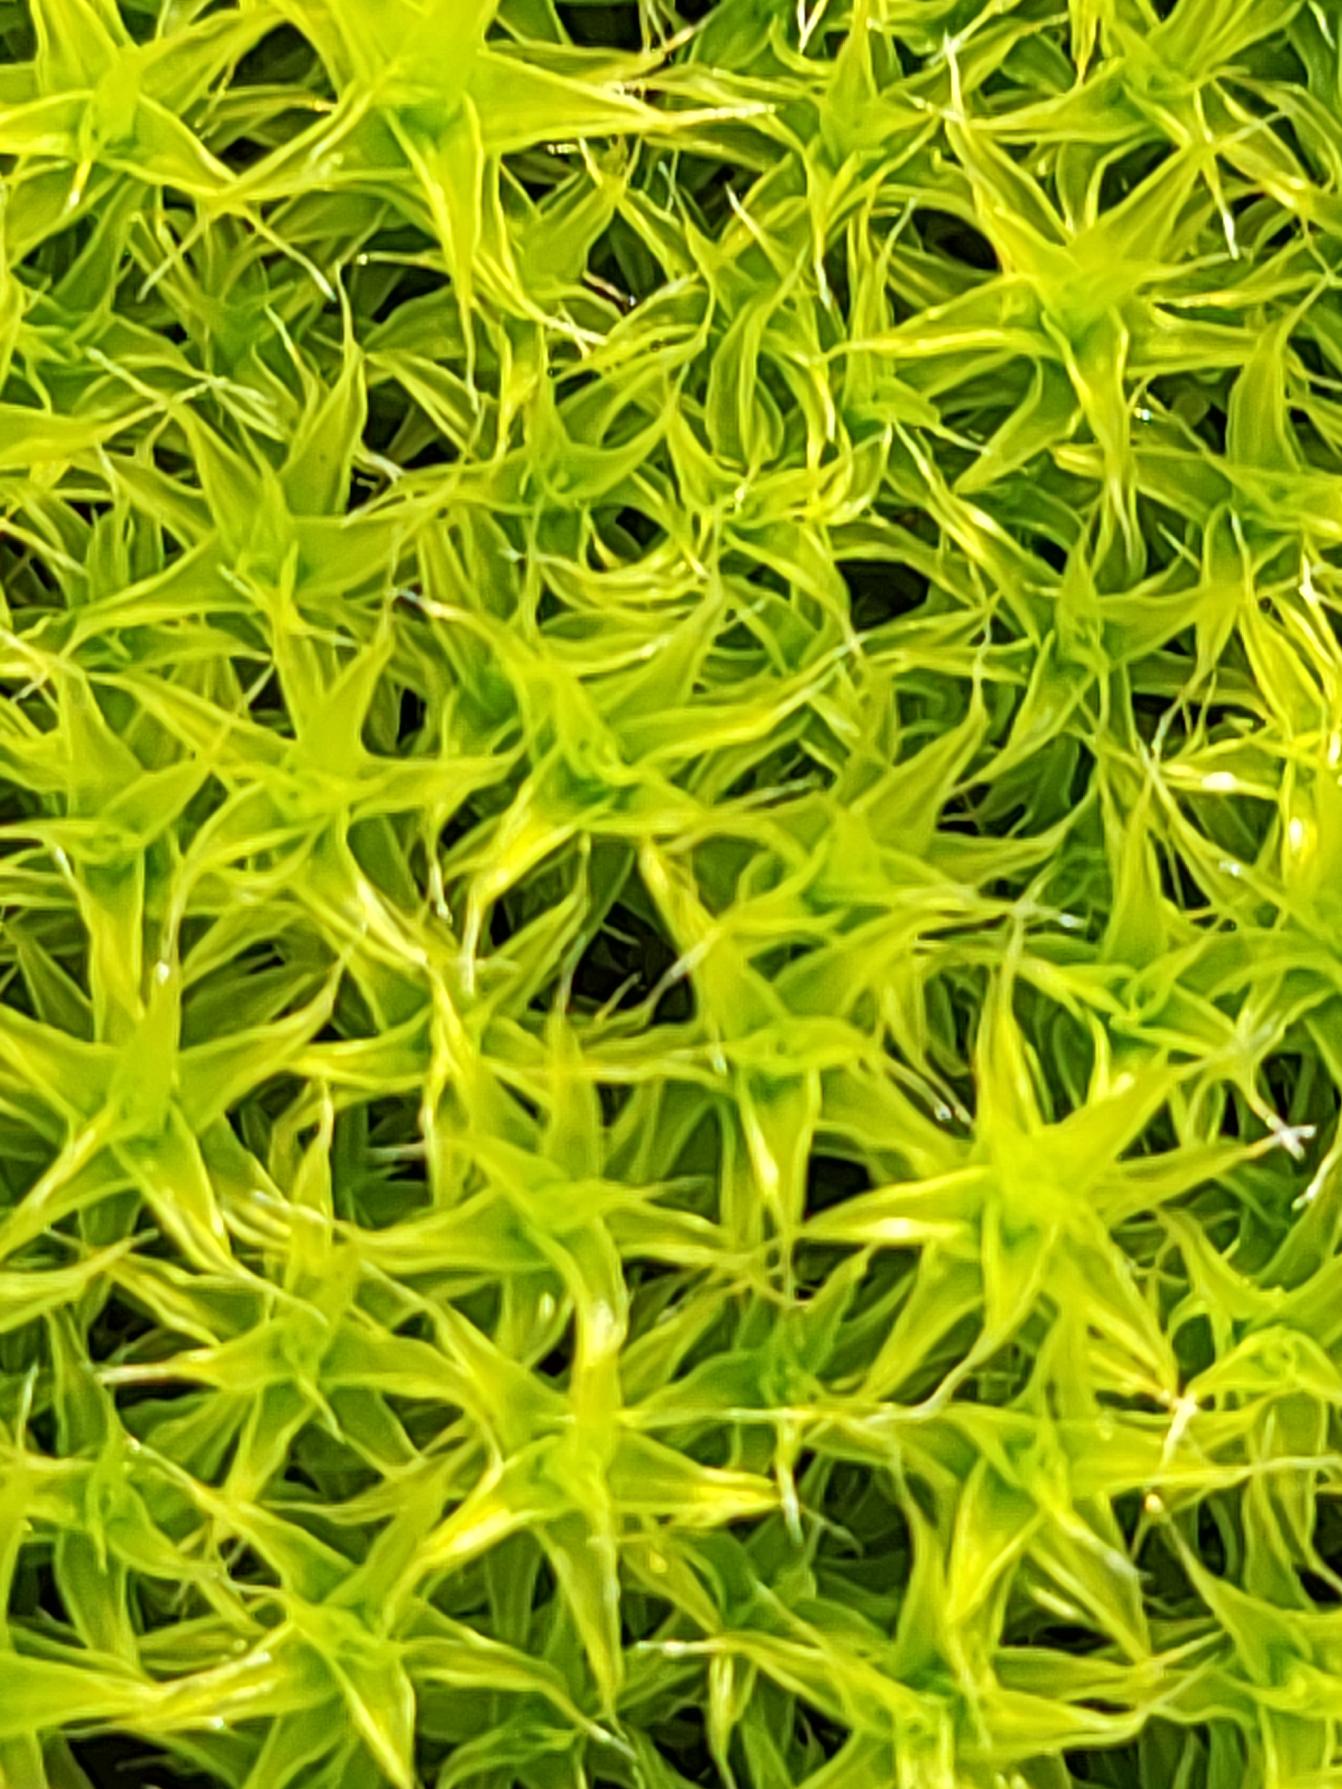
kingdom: Plantae
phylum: Bryophyta
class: Bryopsida
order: Pottiales
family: Pottiaceae
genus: Syntrichia
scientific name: Syntrichia ruralis
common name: Spidsbladet hårstjerne
